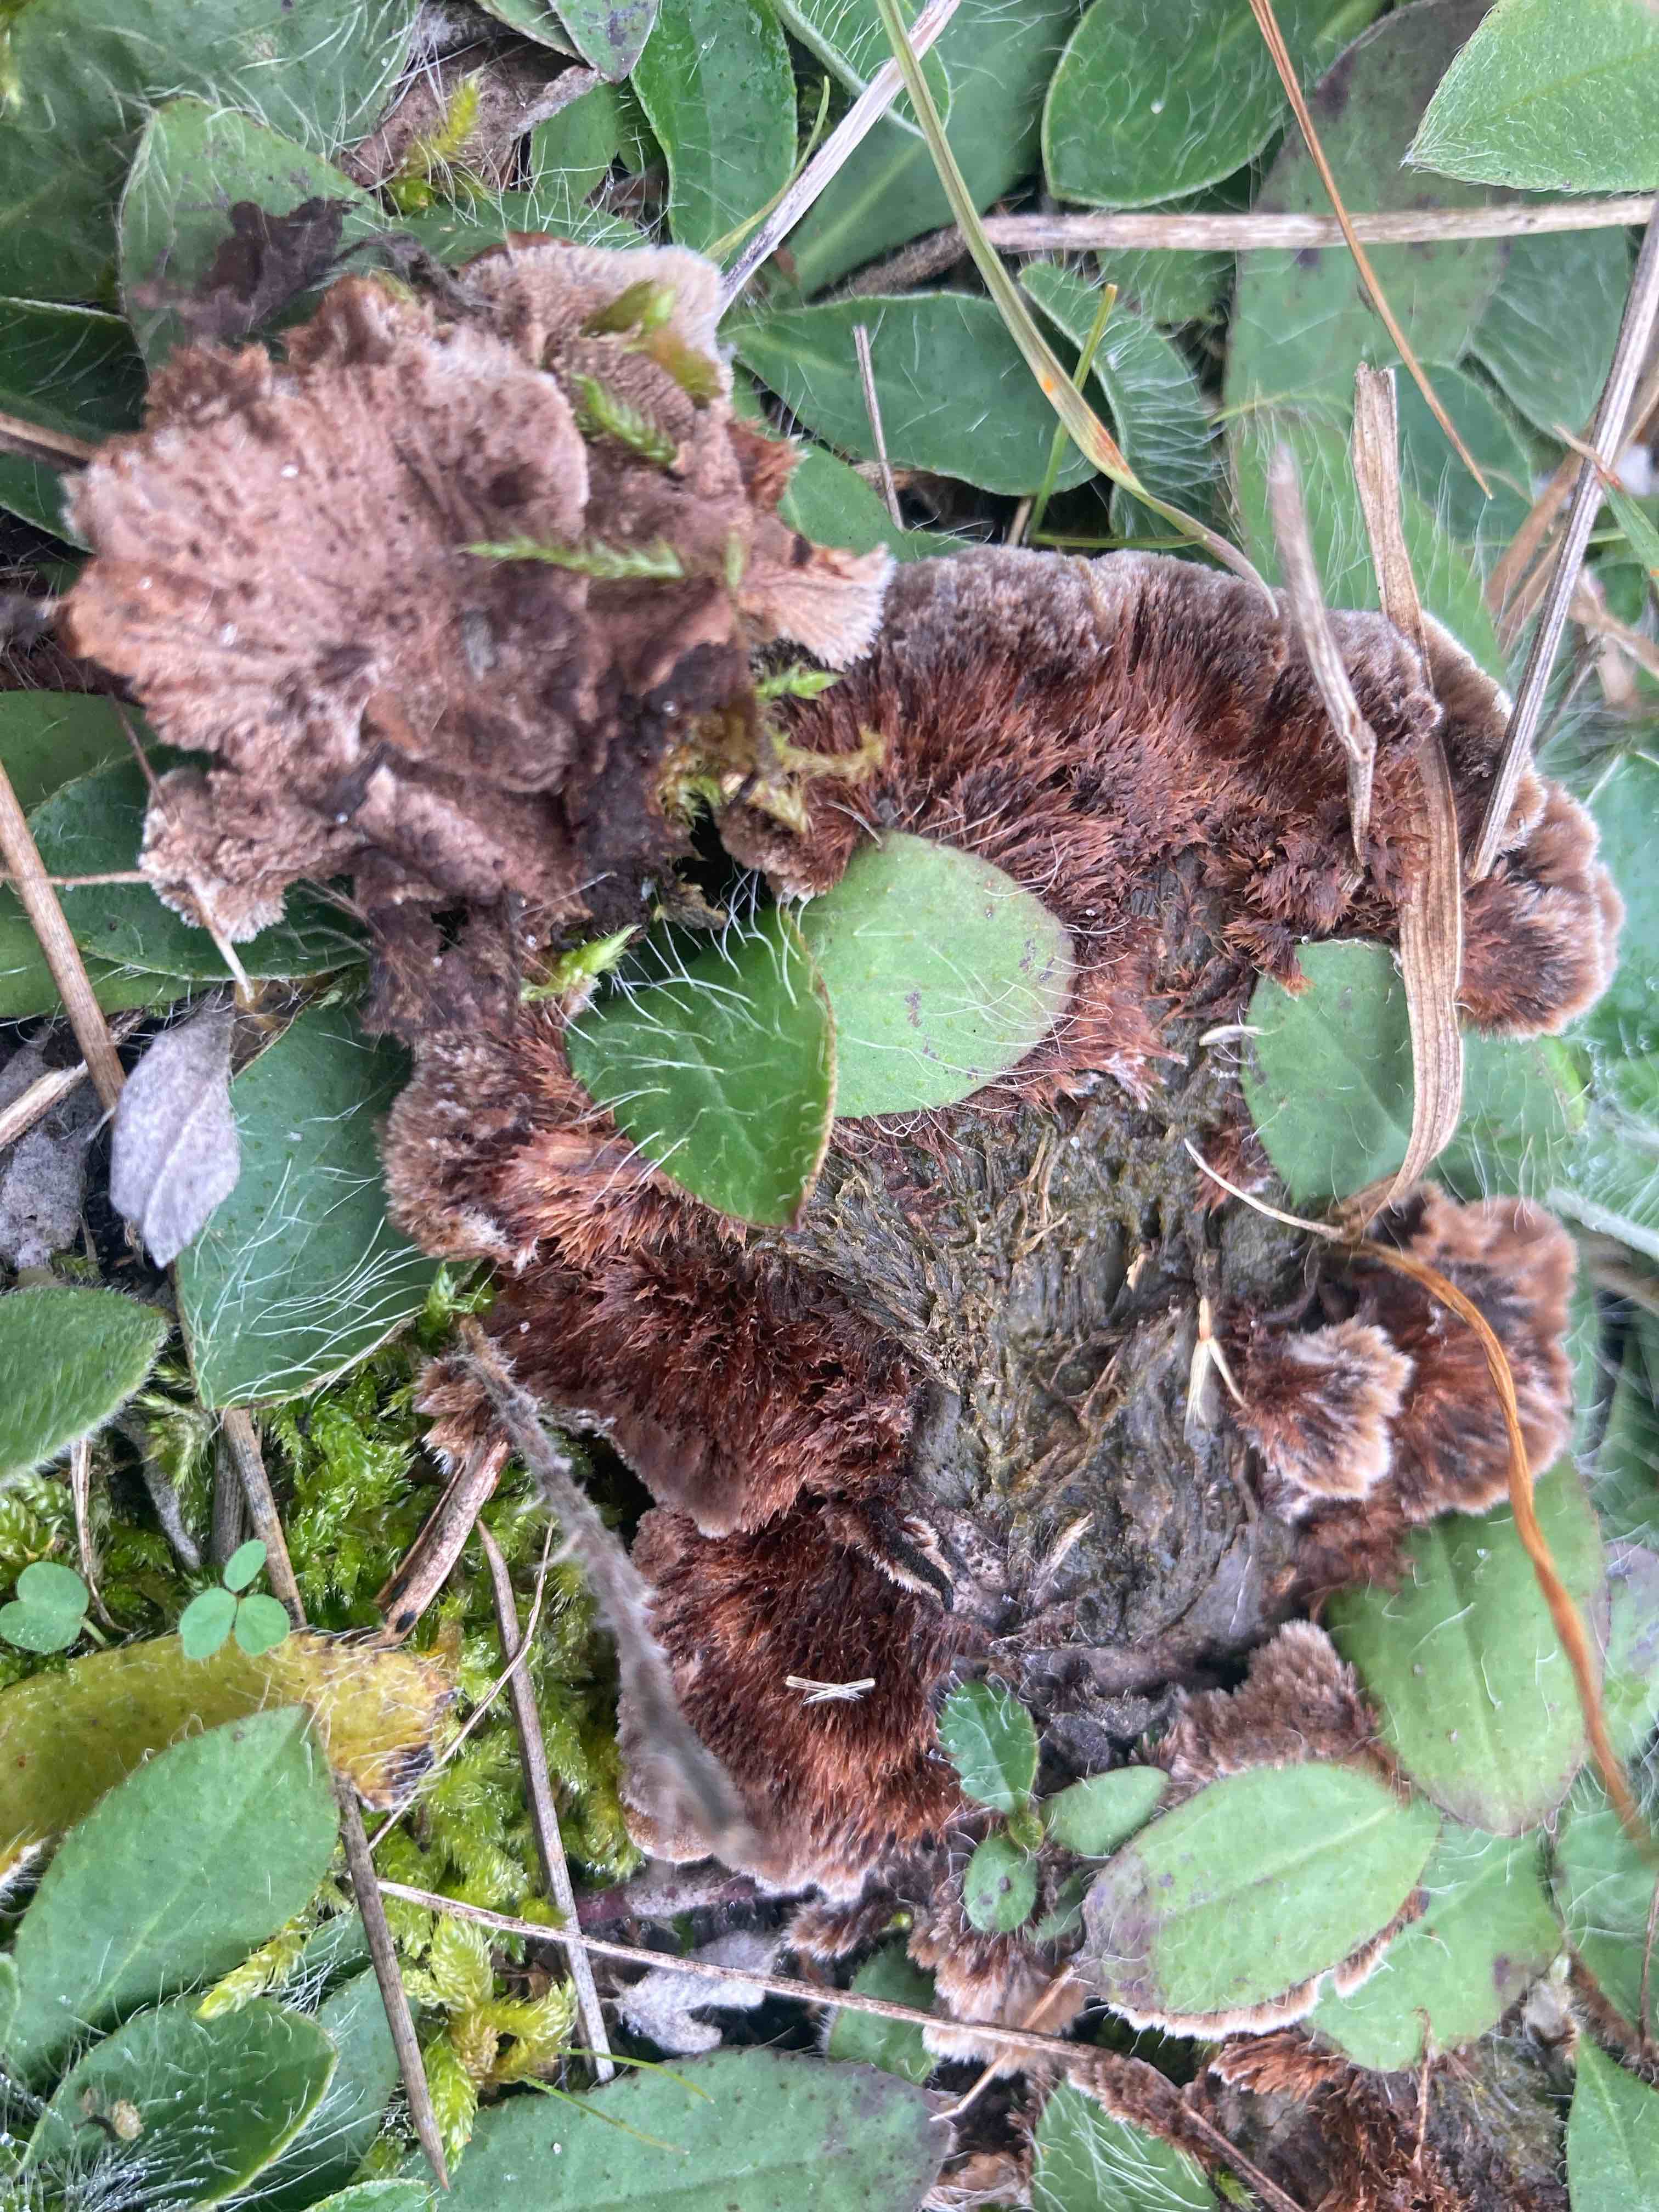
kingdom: Fungi
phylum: Basidiomycota
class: Agaricomycetes
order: Thelephorales
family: Thelephoraceae
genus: Thelephora
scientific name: Thelephora terrestris
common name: fliget frynsesvamp
